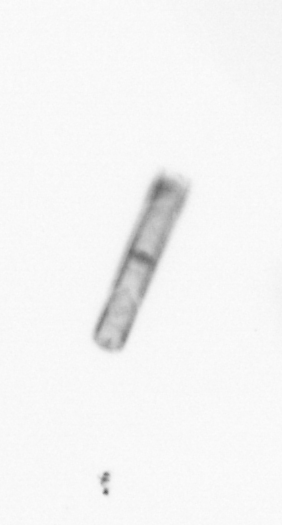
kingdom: Chromista
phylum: Ochrophyta
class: Bacillariophyceae
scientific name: Bacillariophyceae
